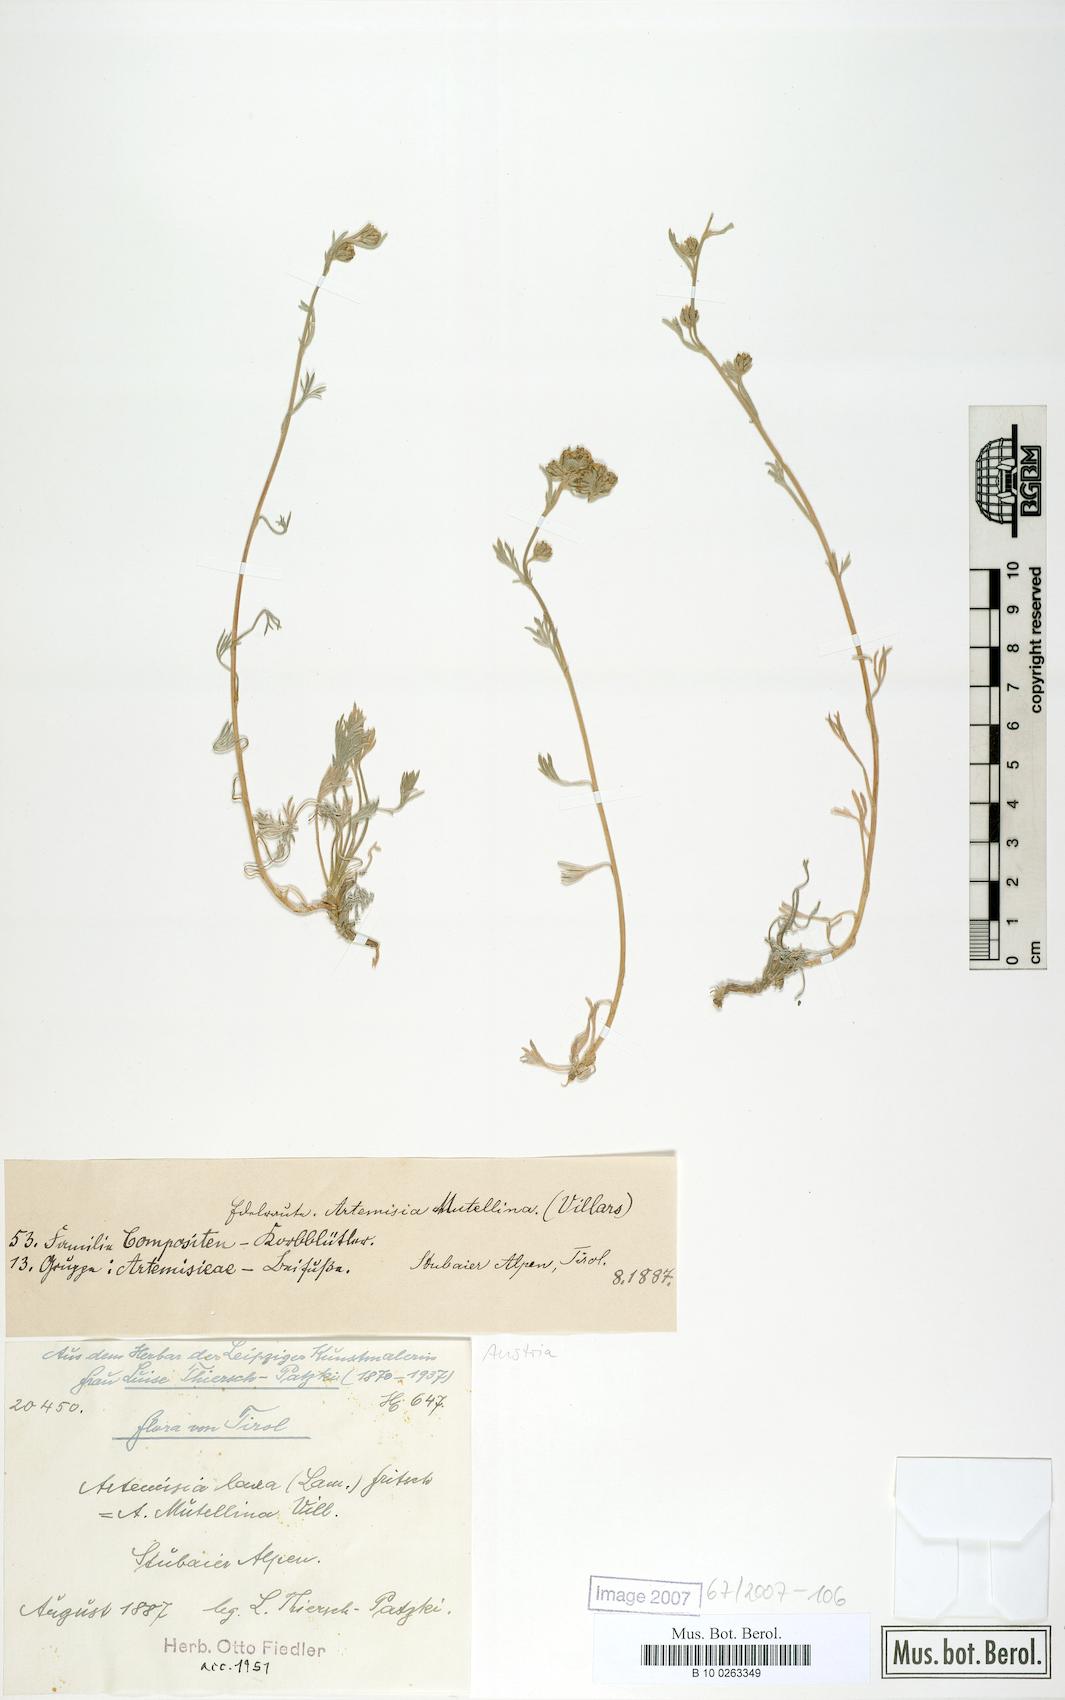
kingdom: Plantae
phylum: Tracheophyta
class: Magnoliopsida
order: Asterales
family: Asteraceae
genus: Artemisia
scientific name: Artemisia mutellina
